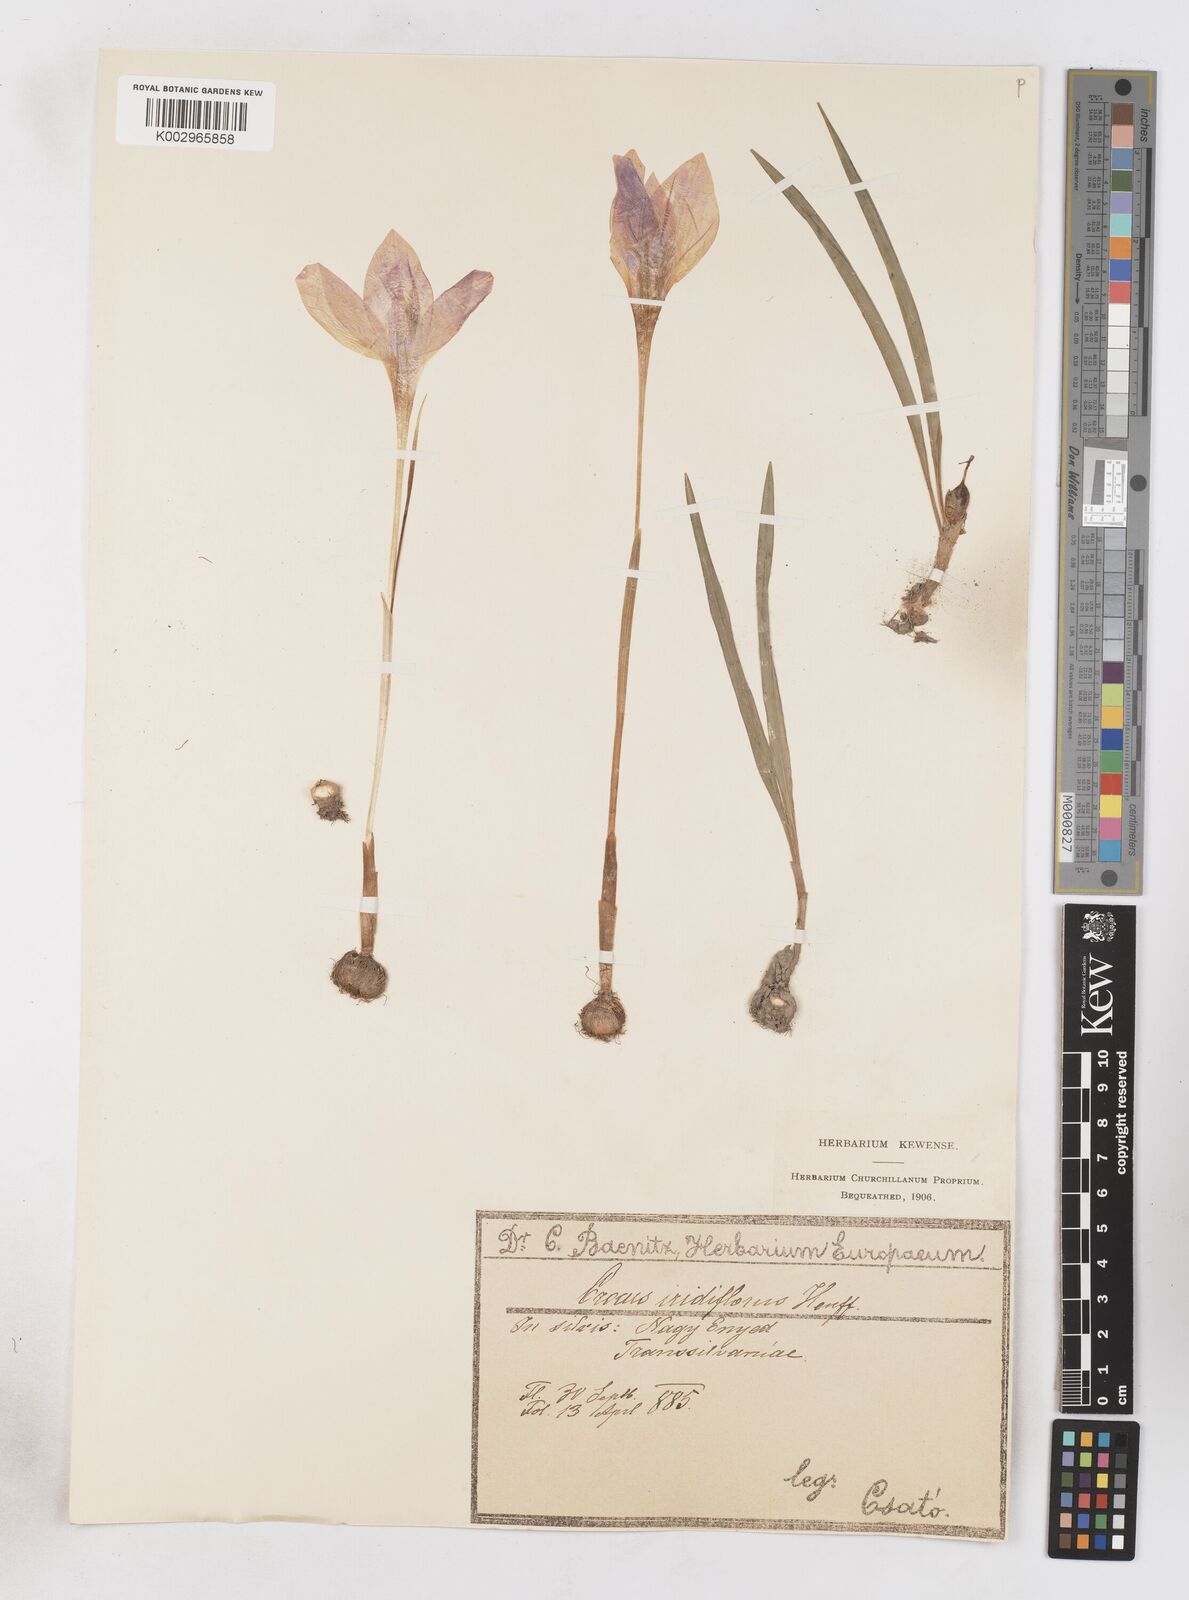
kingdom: Plantae
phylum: Tracheophyta
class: Liliopsida
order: Asparagales
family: Iridaceae
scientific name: Iridaceae
